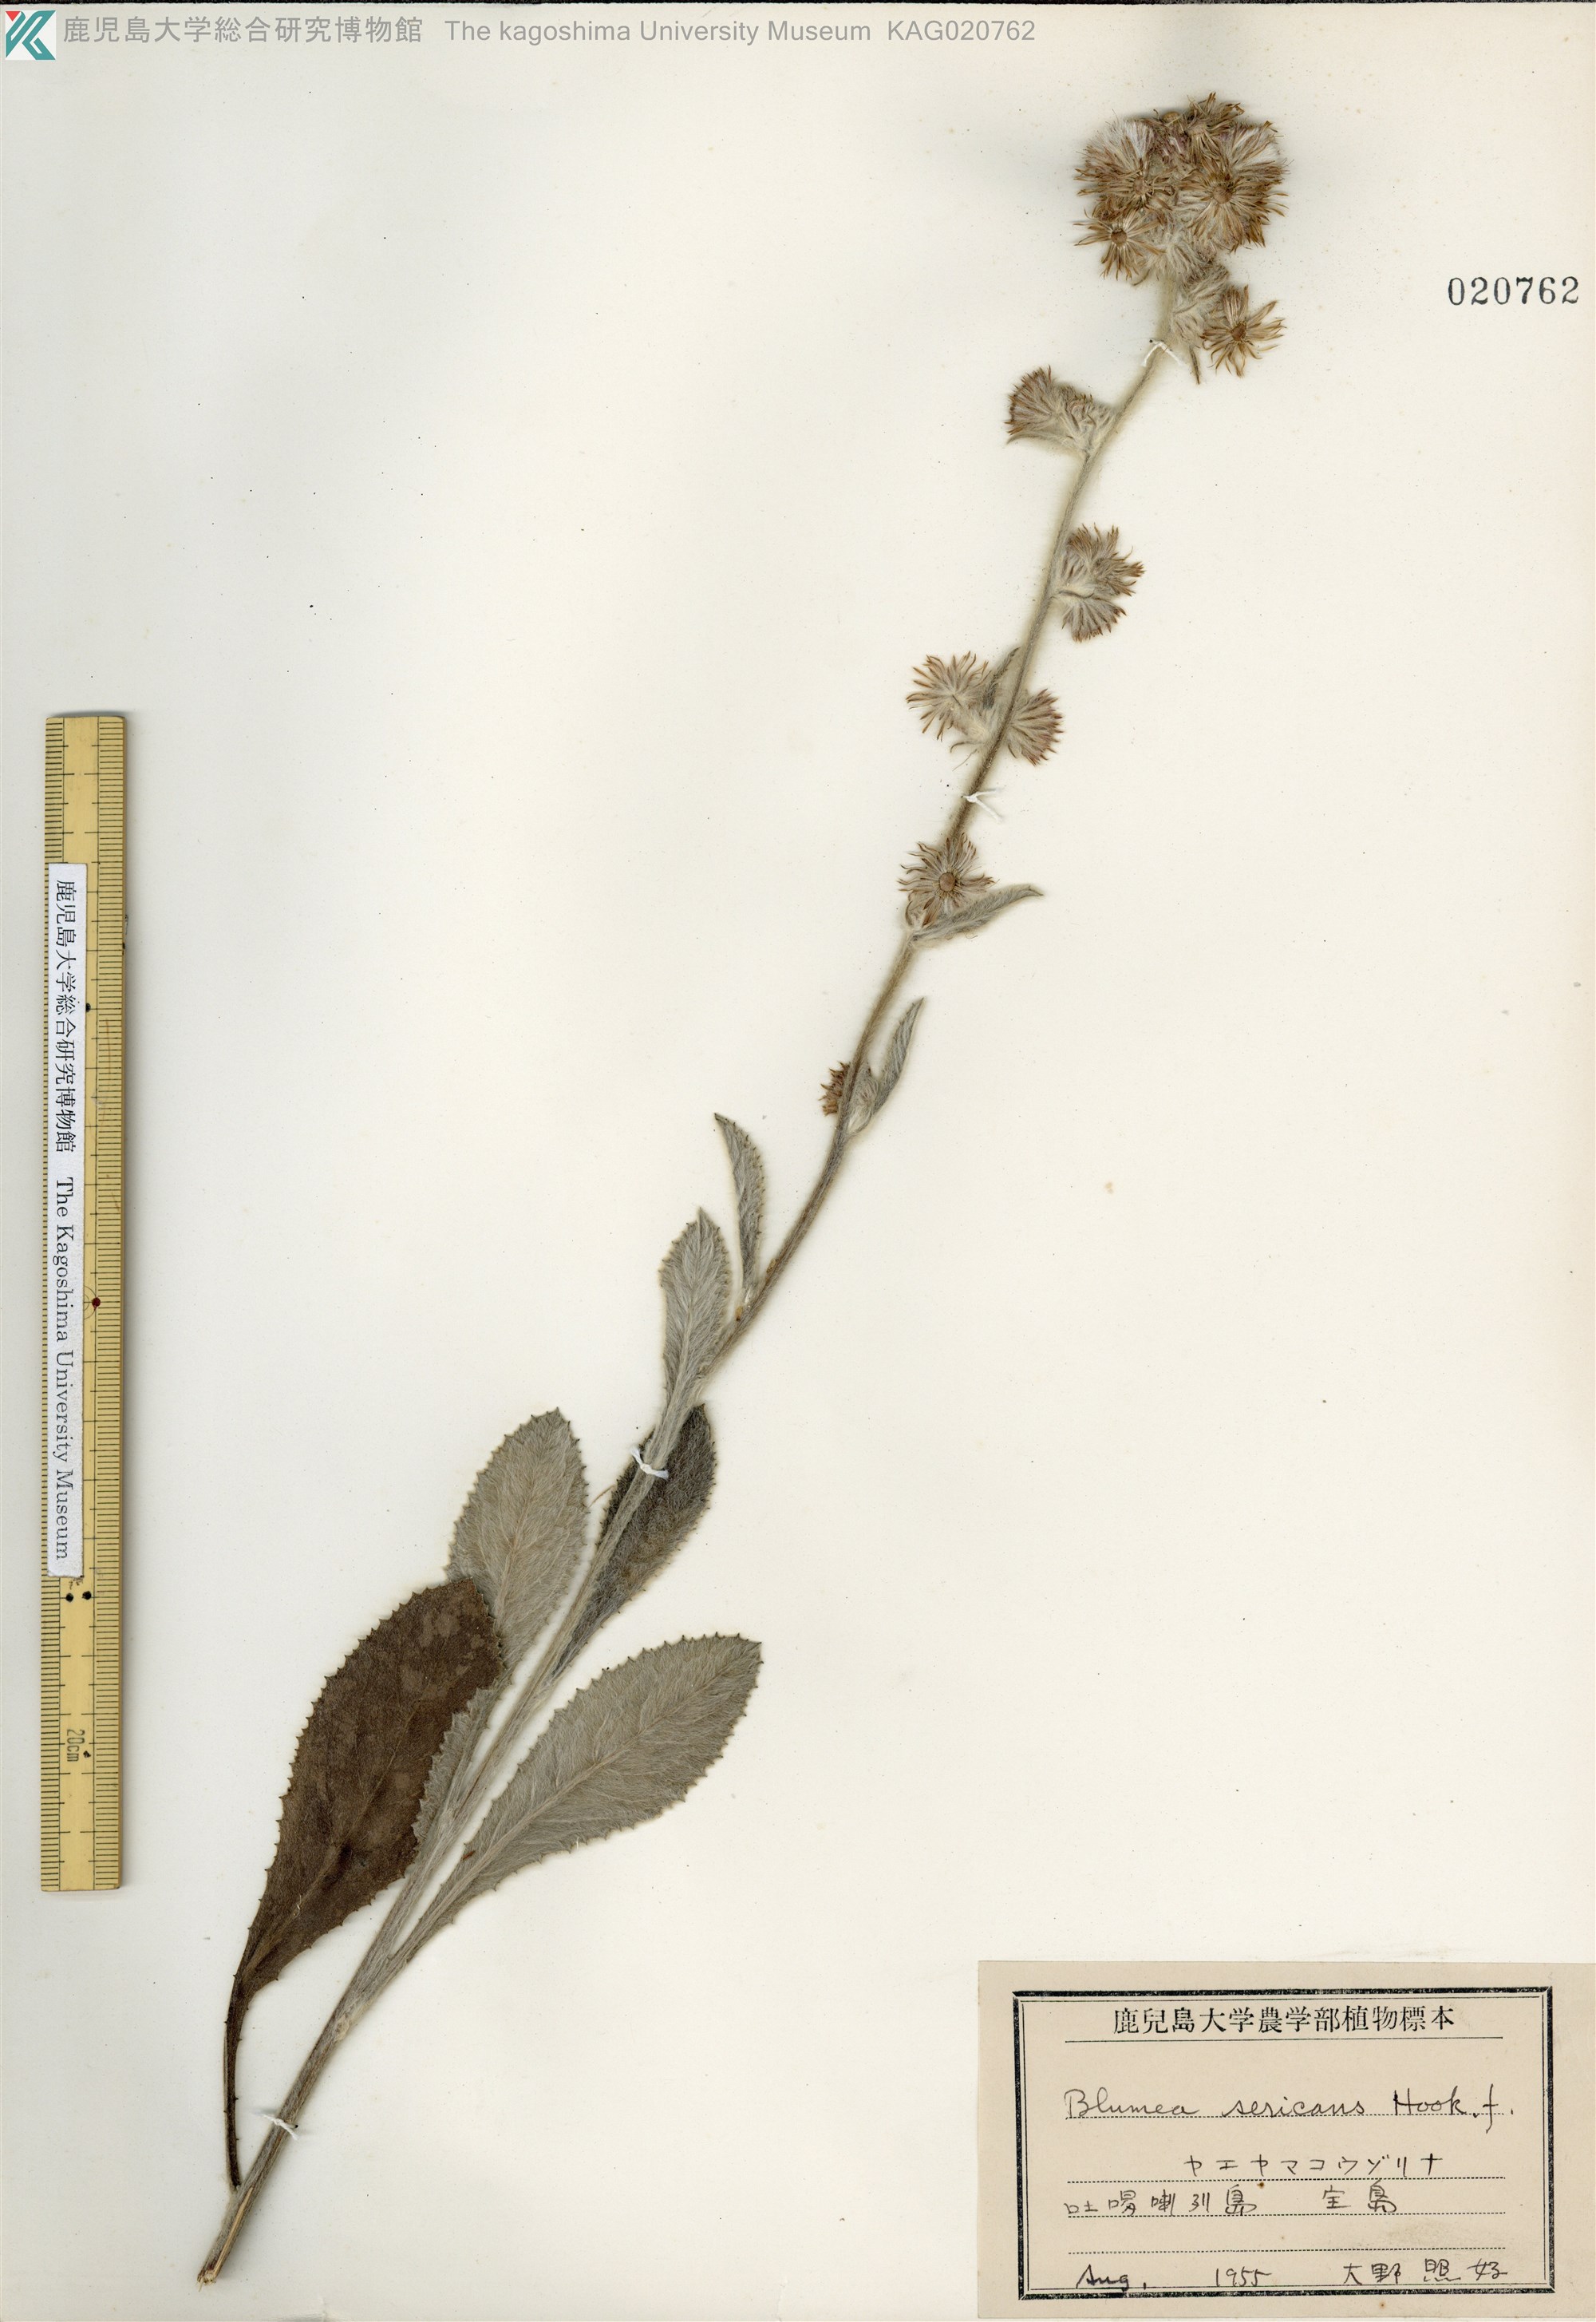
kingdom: Plantae
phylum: Tracheophyta
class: Magnoliopsida
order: Asterales
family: Asteraceae
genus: Blumea
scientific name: Blumea hieraciifolia
